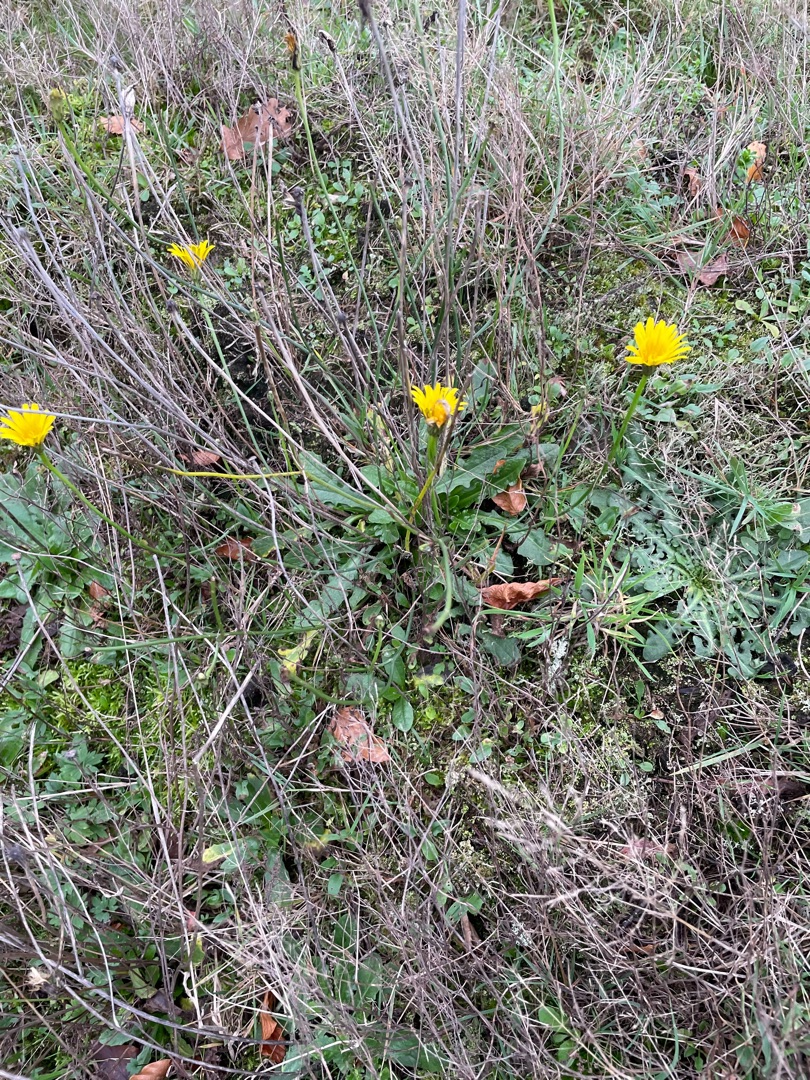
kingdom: Plantae
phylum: Tracheophyta
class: Magnoliopsida
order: Asterales
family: Asteraceae
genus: Hypochaeris
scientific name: Hypochaeris radicata
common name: Almindelig kongepen
